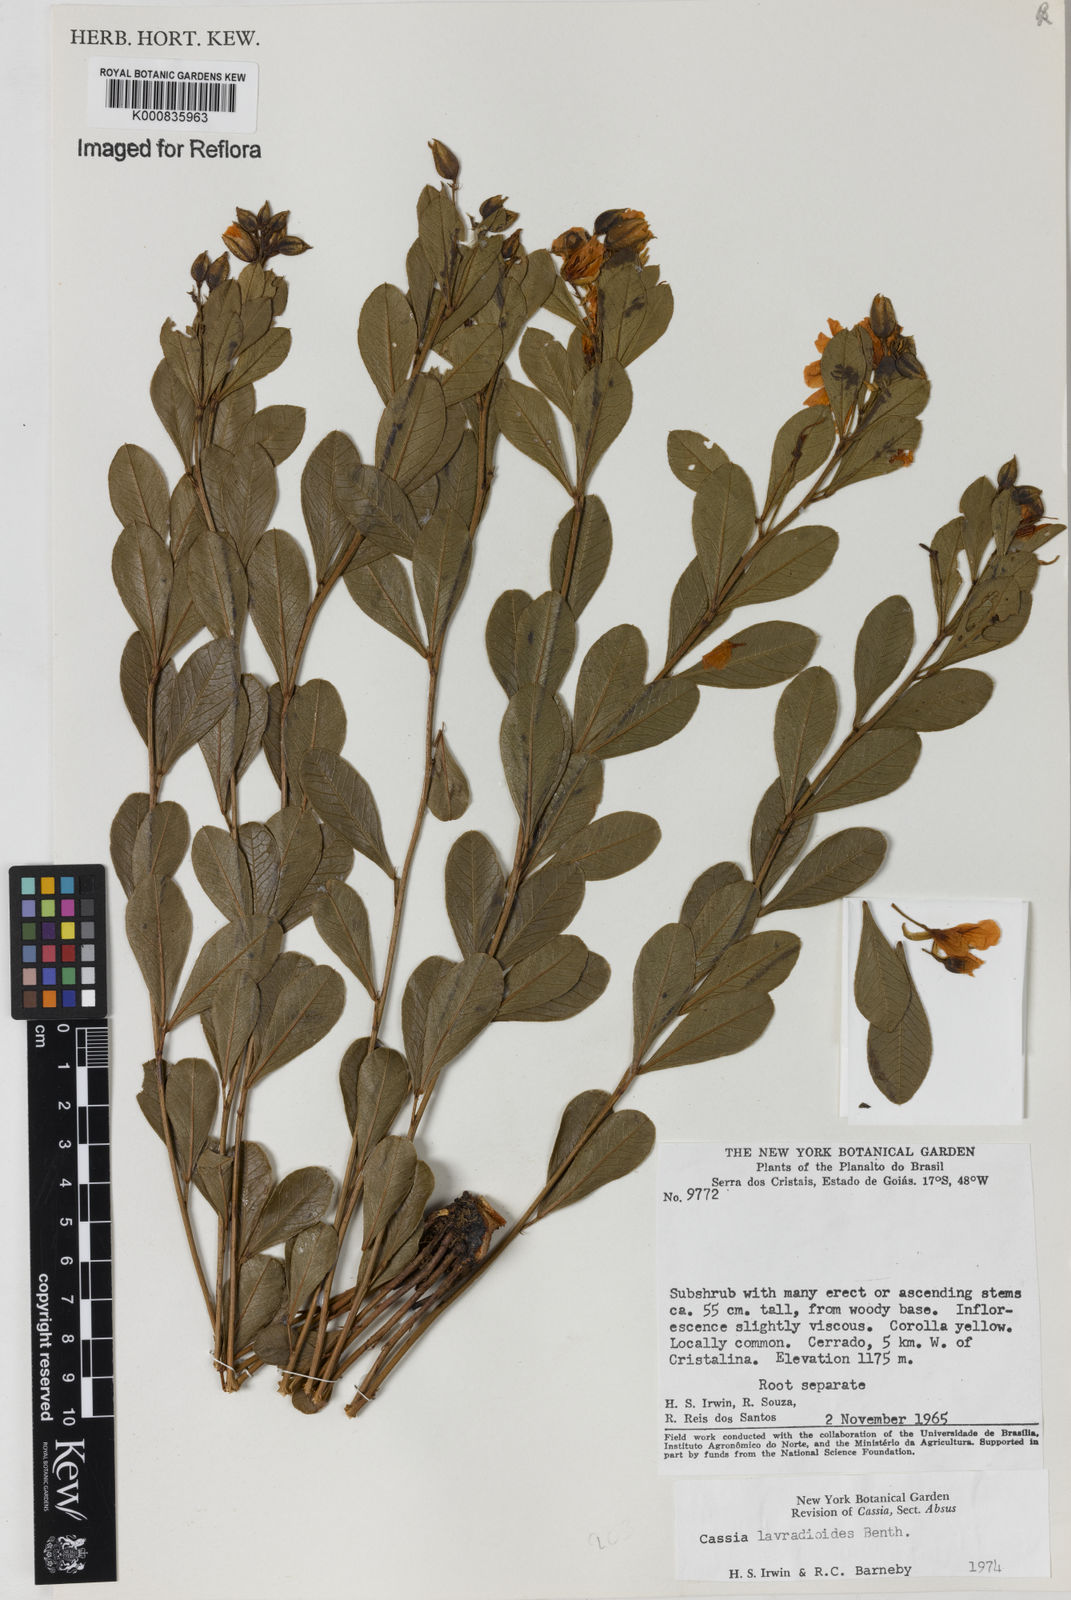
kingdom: Plantae
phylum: Tracheophyta
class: Magnoliopsida
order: Fabales
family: Fabaceae
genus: Chamaecrista
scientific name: Chamaecrista lavradioides
